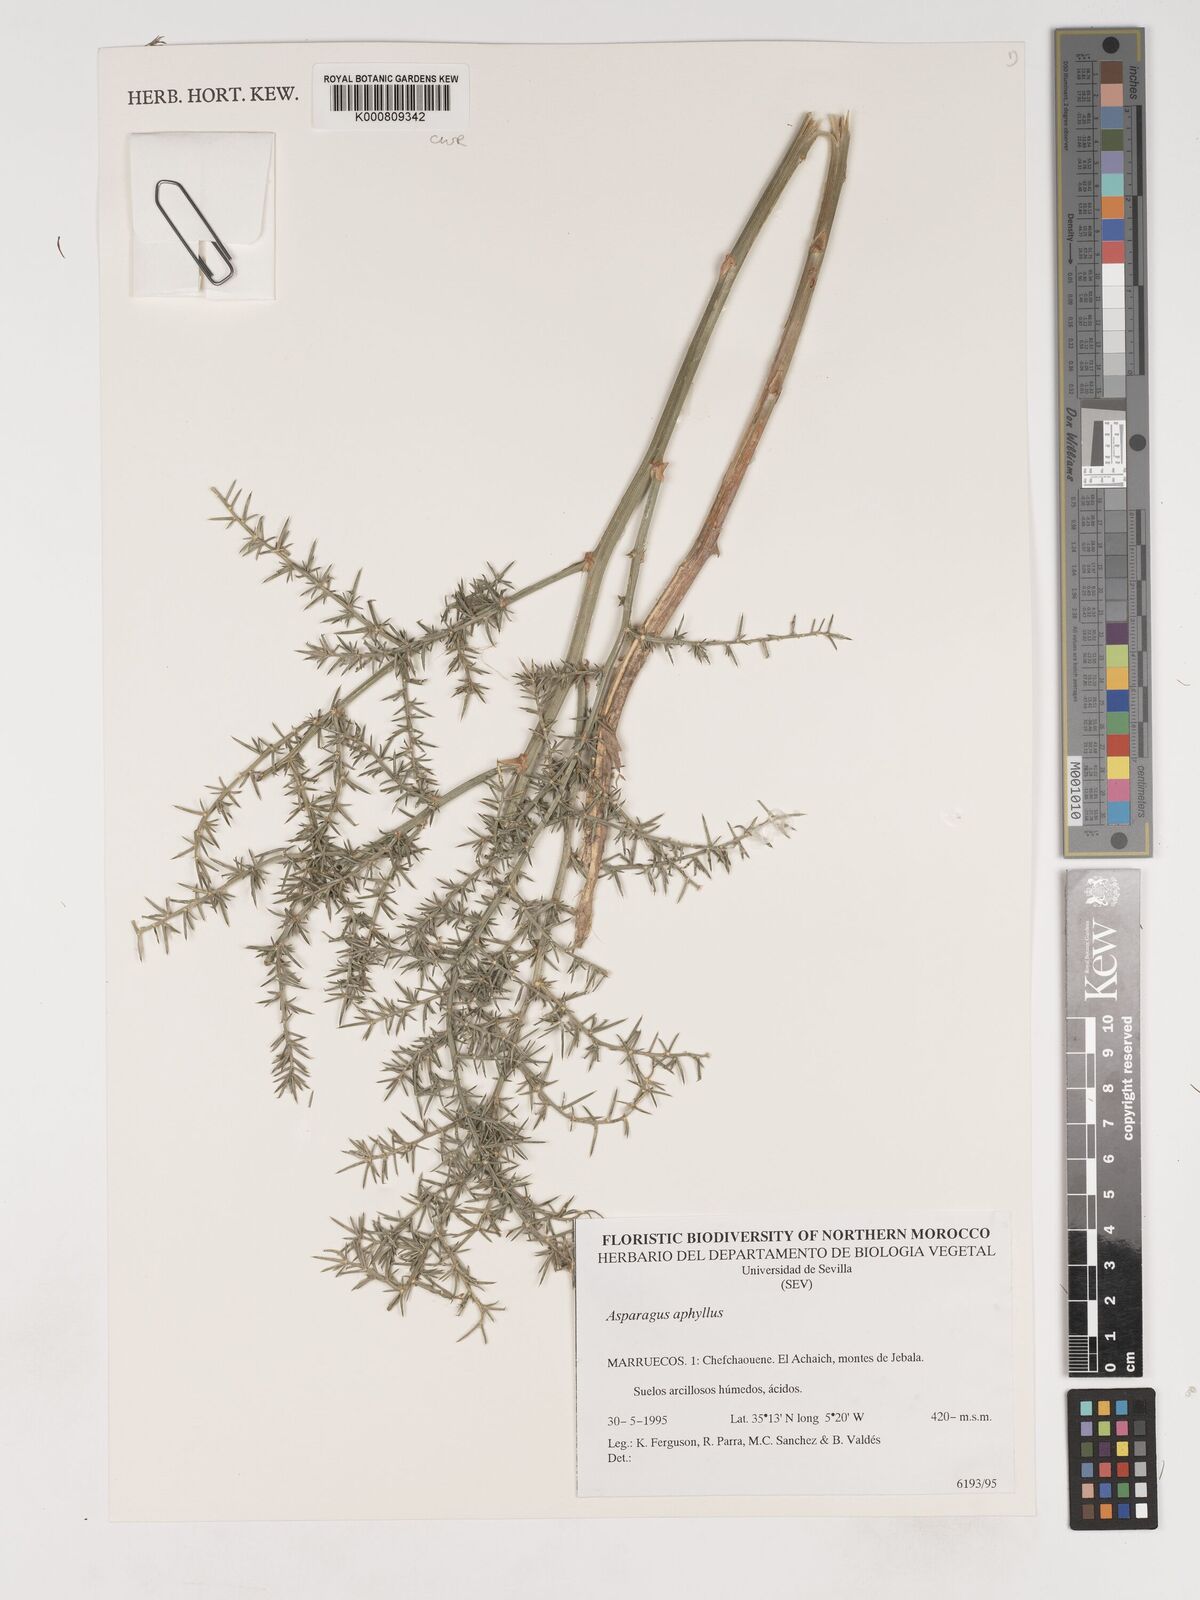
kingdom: Plantae
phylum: Tracheophyta
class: Liliopsida
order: Asparagales
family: Asparagaceae
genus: Asparagus
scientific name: Asparagus aphyllus
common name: Mediterranean asparagus
